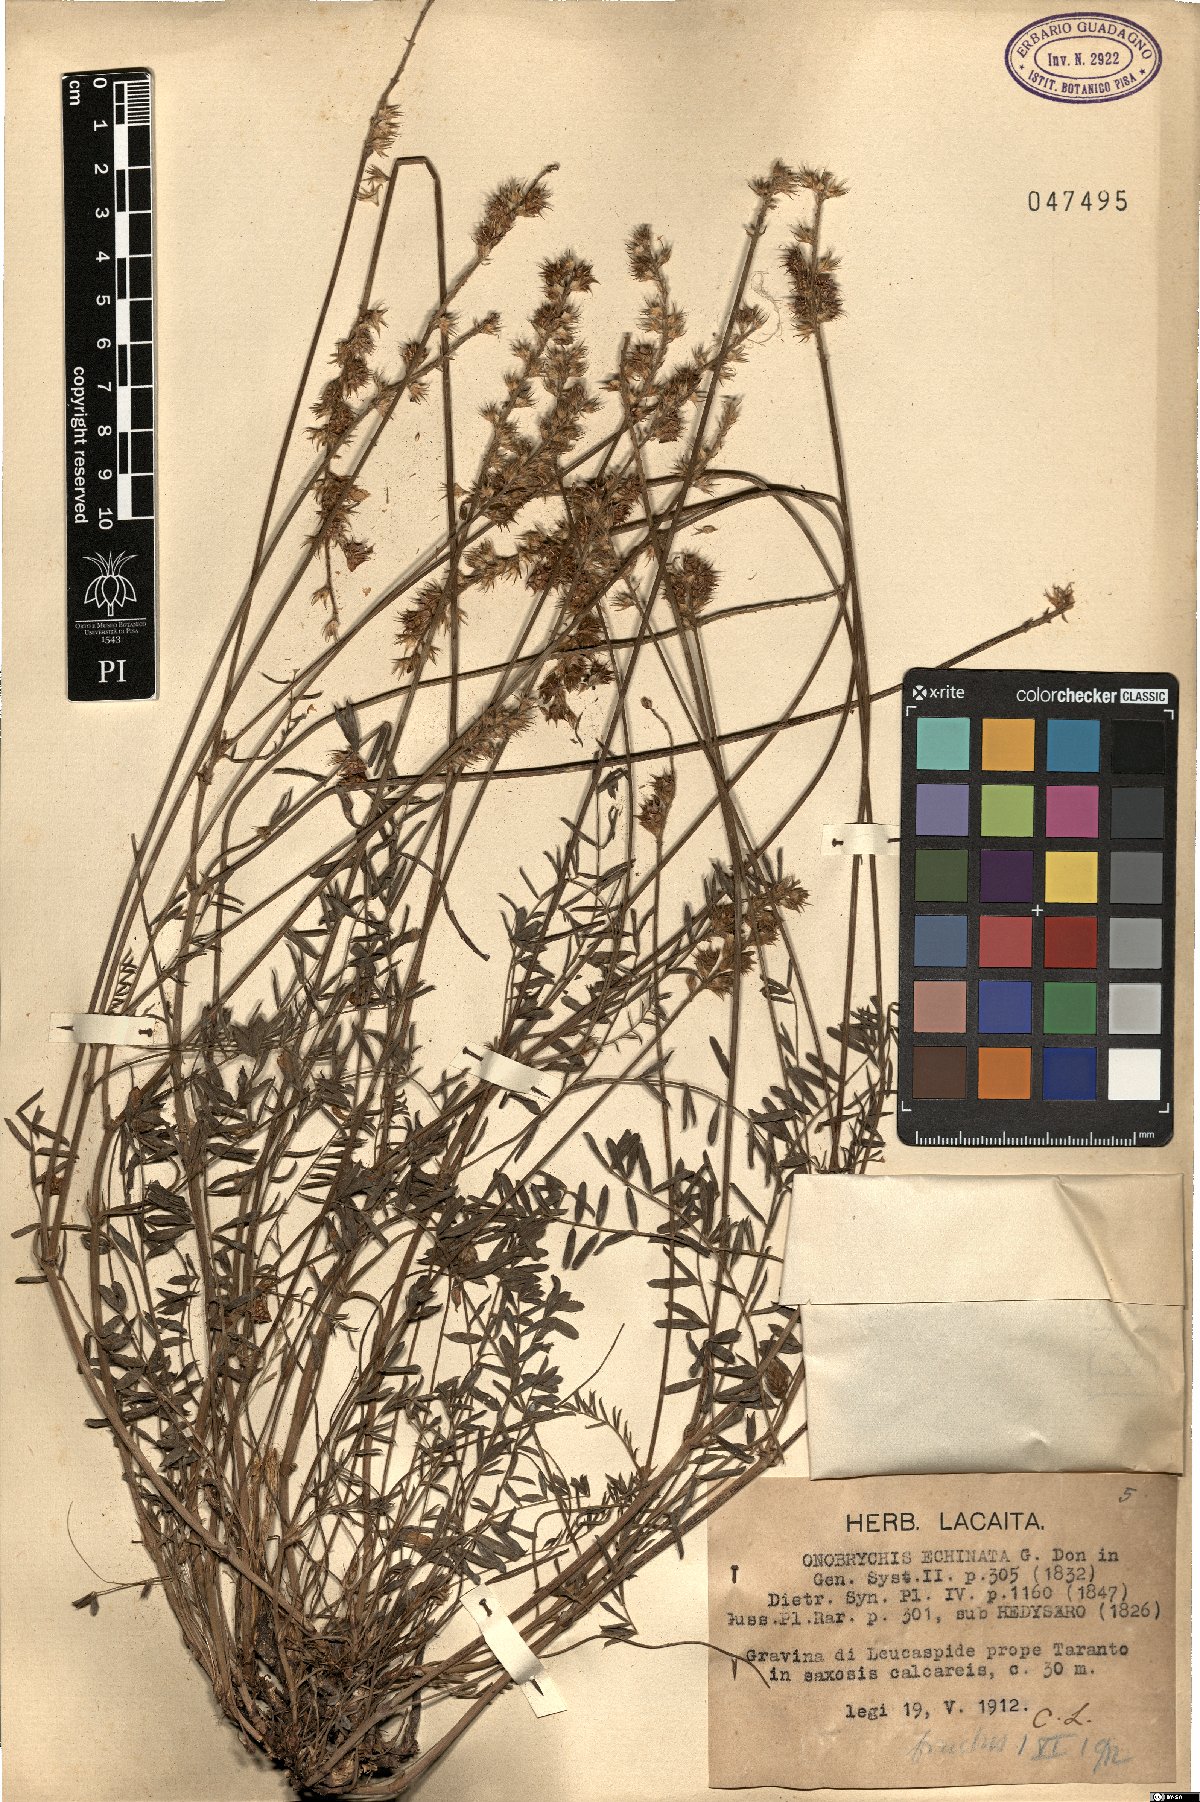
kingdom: Plantae
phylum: Tracheophyta
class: Magnoliopsida
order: Fabales
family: Fabaceae
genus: Onobrychis
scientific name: Onobrychis alba
